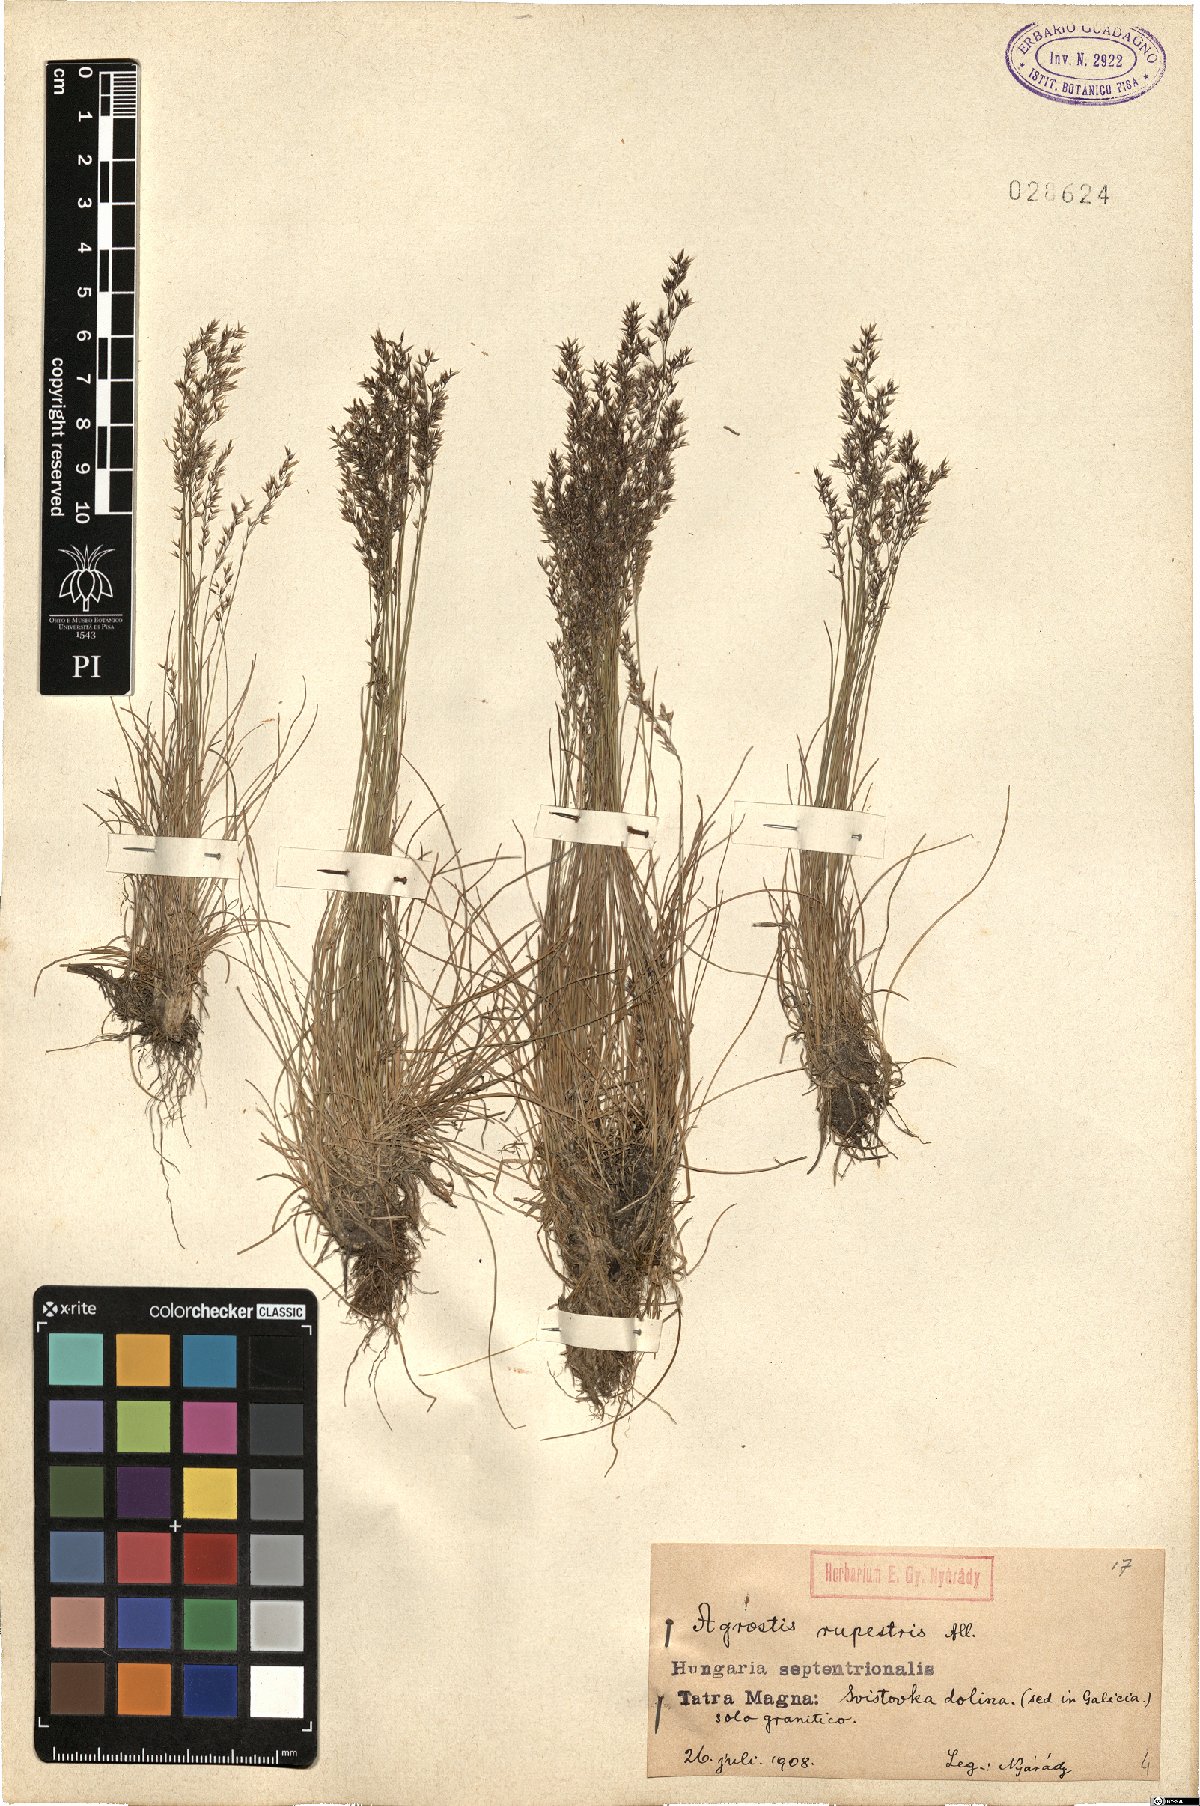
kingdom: Plantae
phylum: Tracheophyta
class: Liliopsida
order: Poales
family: Poaceae
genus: Agrostis
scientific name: Agrostis rupestris
